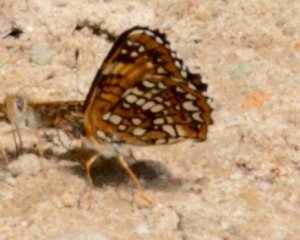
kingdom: Animalia
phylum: Arthropoda
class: Insecta
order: Lepidoptera
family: Nymphalidae
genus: Chlosyne
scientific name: Chlosyne harrisii
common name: Harris's Checkerspot
